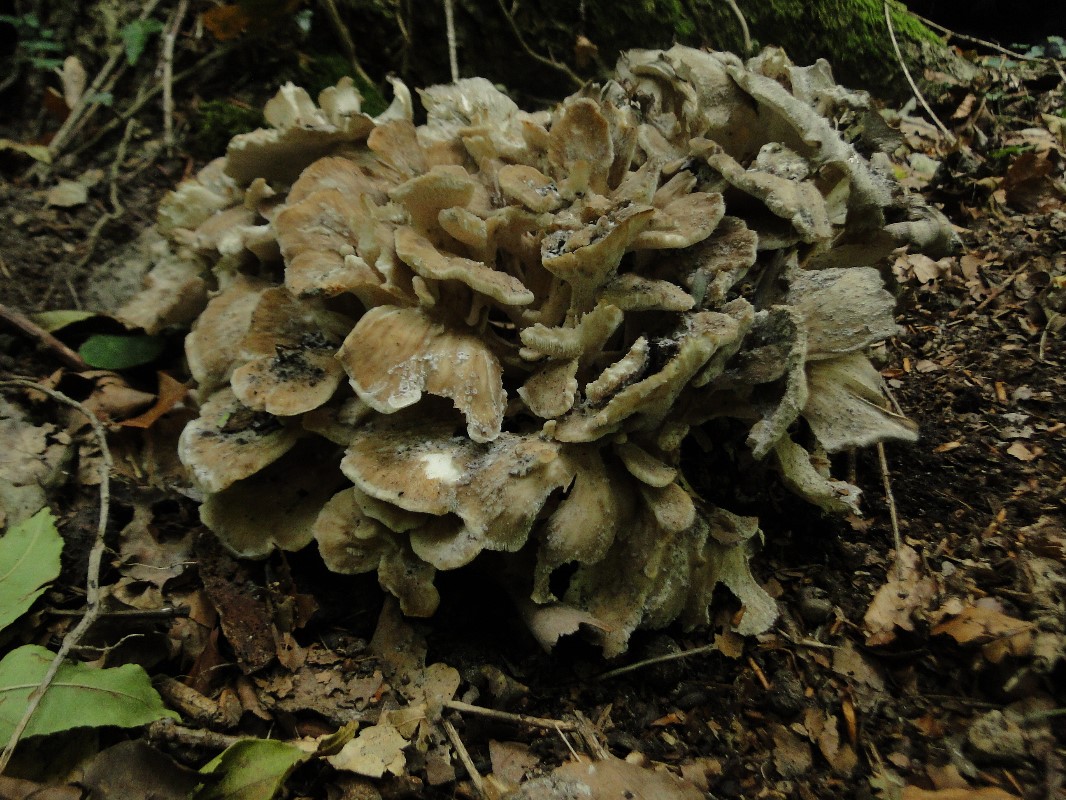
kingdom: Fungi
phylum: Basidiomycota
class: Agaricomycetes
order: Polyporales
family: Grifolaceae
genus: Grifola
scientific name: Grifola frondosa
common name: tueporesvamp
